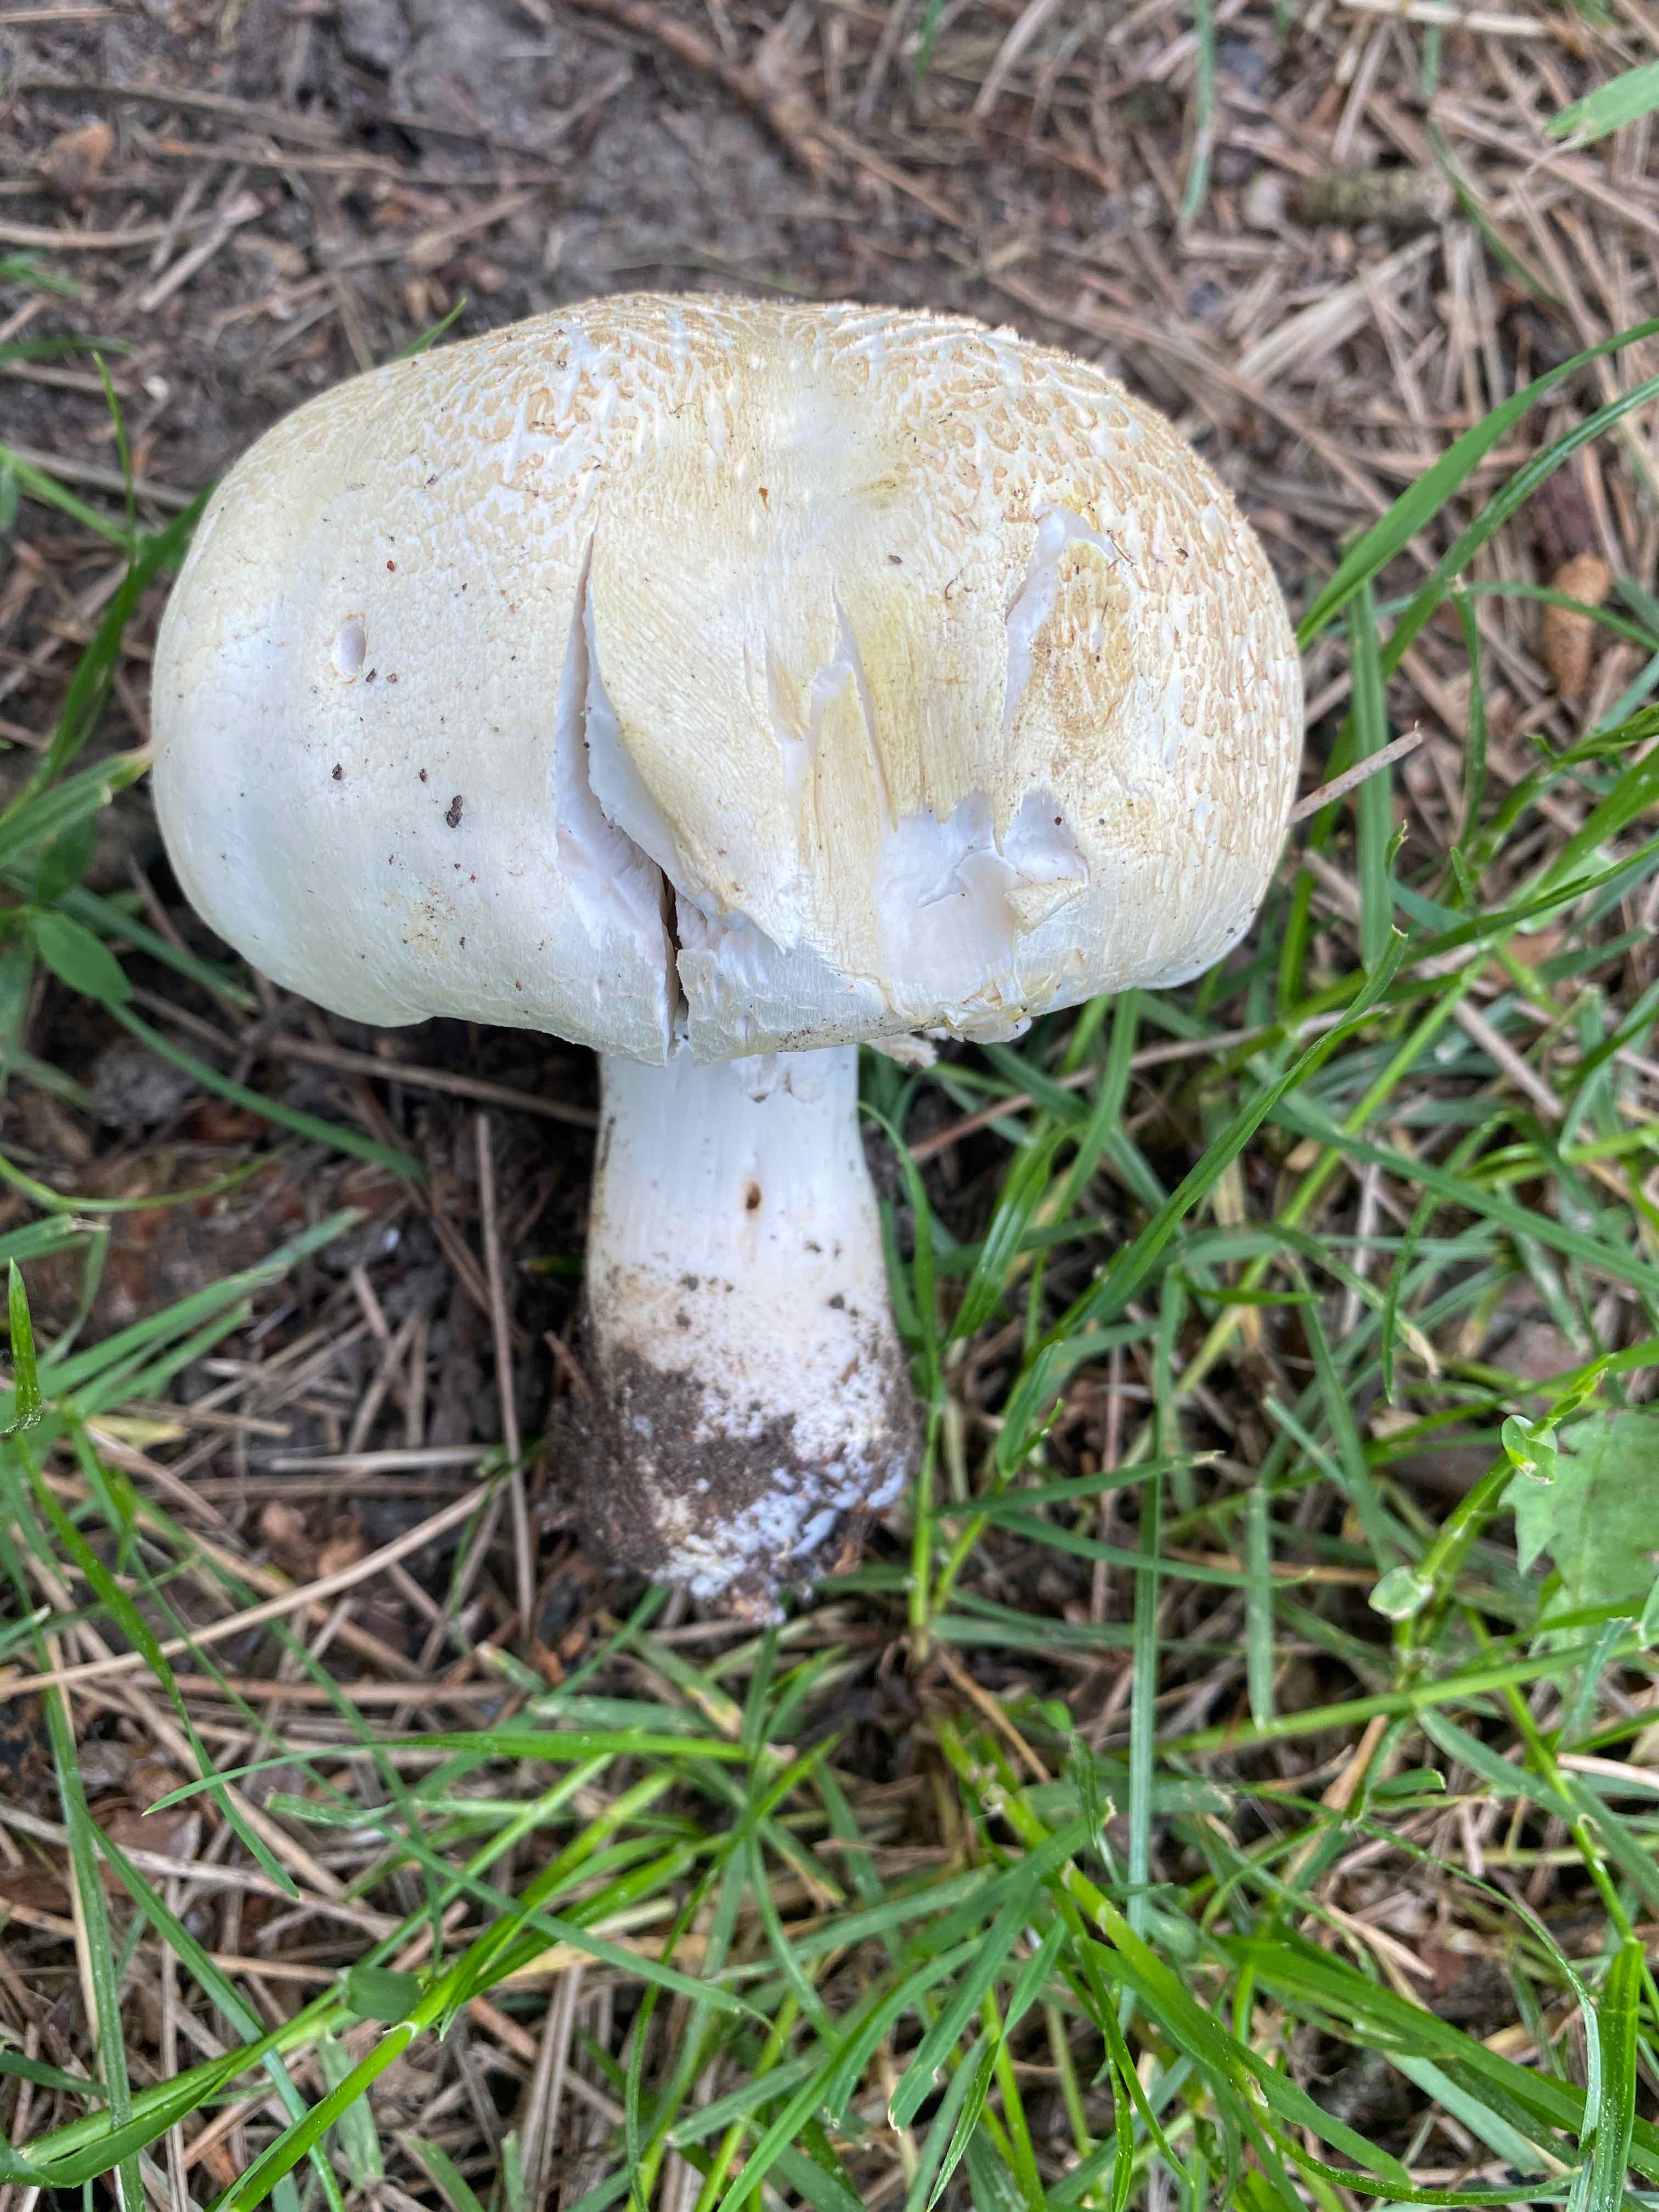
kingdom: Fungi
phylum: Basidiomycota
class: Agaricomycetes
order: Agaricales
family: Agaricaceae
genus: Agaricus
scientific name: Agaricus xanthodermus
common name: karbol-champignon
